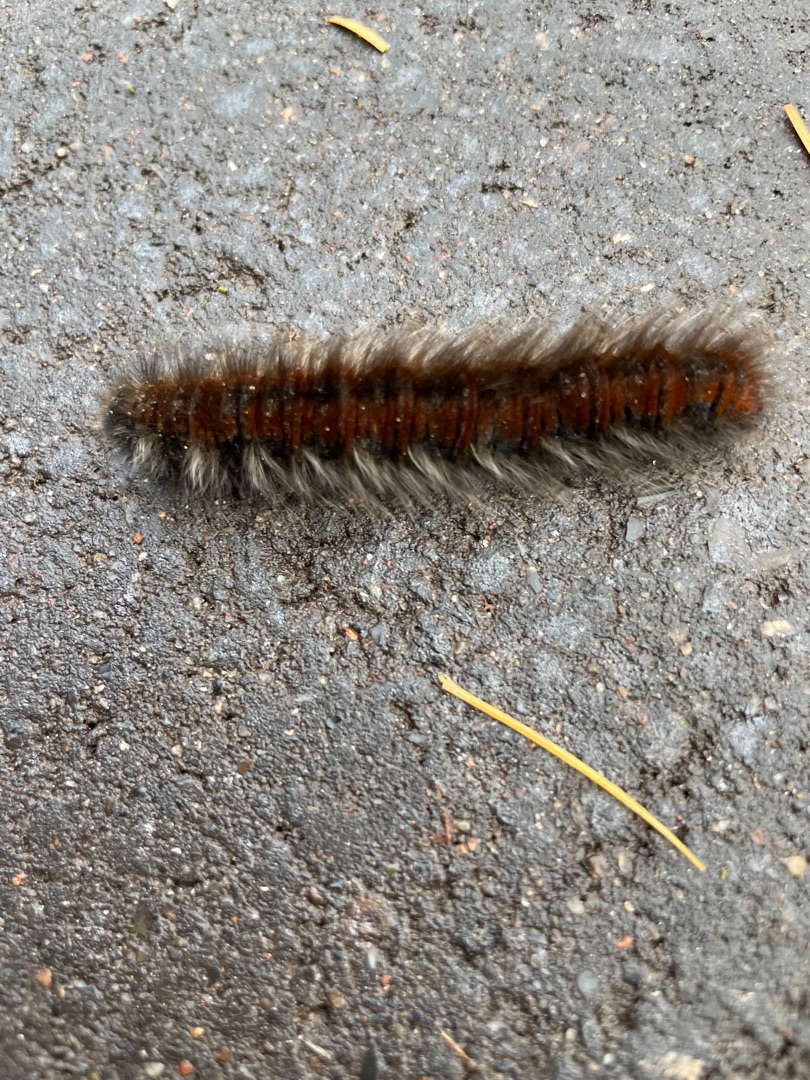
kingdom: Animalia
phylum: Arthropoda
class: Insecta
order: Lepidoptera
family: Lasiocampidae
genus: Macrothylacia
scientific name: Macrothylacia rubi
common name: Brombærspinder
